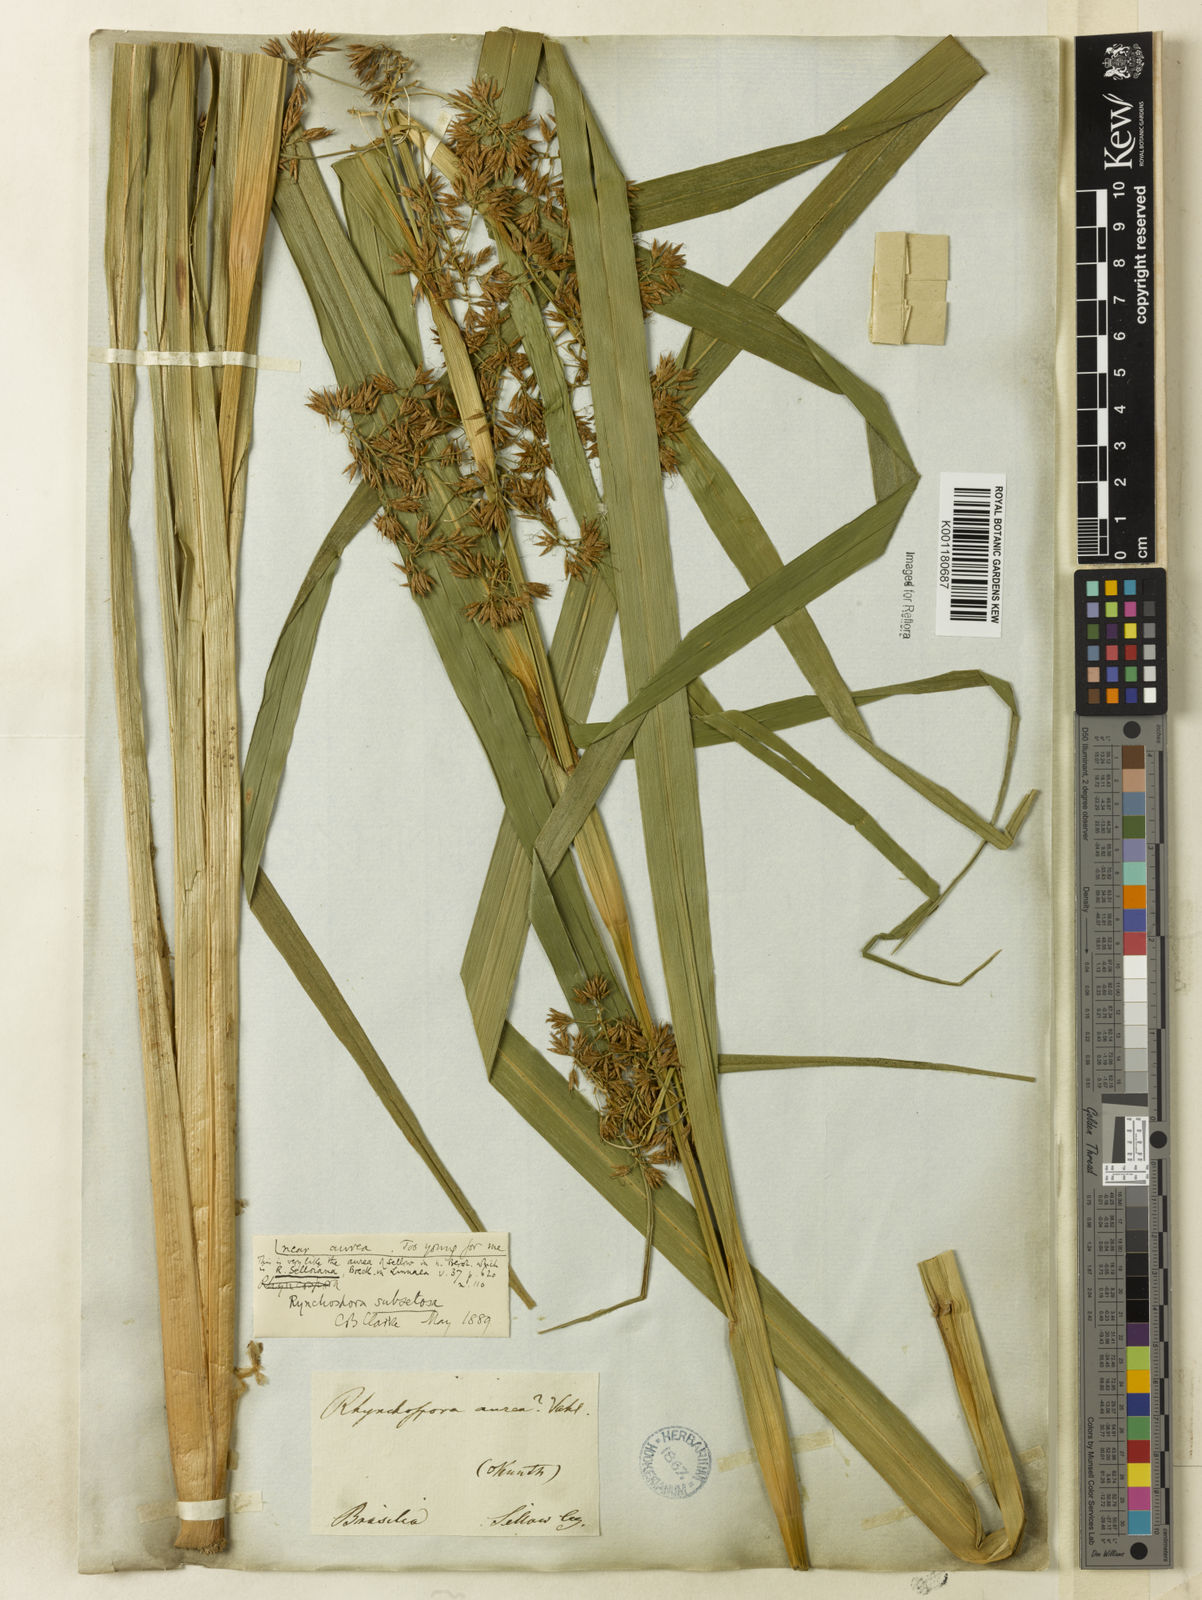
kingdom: Plantae
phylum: Tracheophyta
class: Liliopsida
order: Poales
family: Cyperaceae
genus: Rhynchospora
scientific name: Rhynchospora subsetosa
